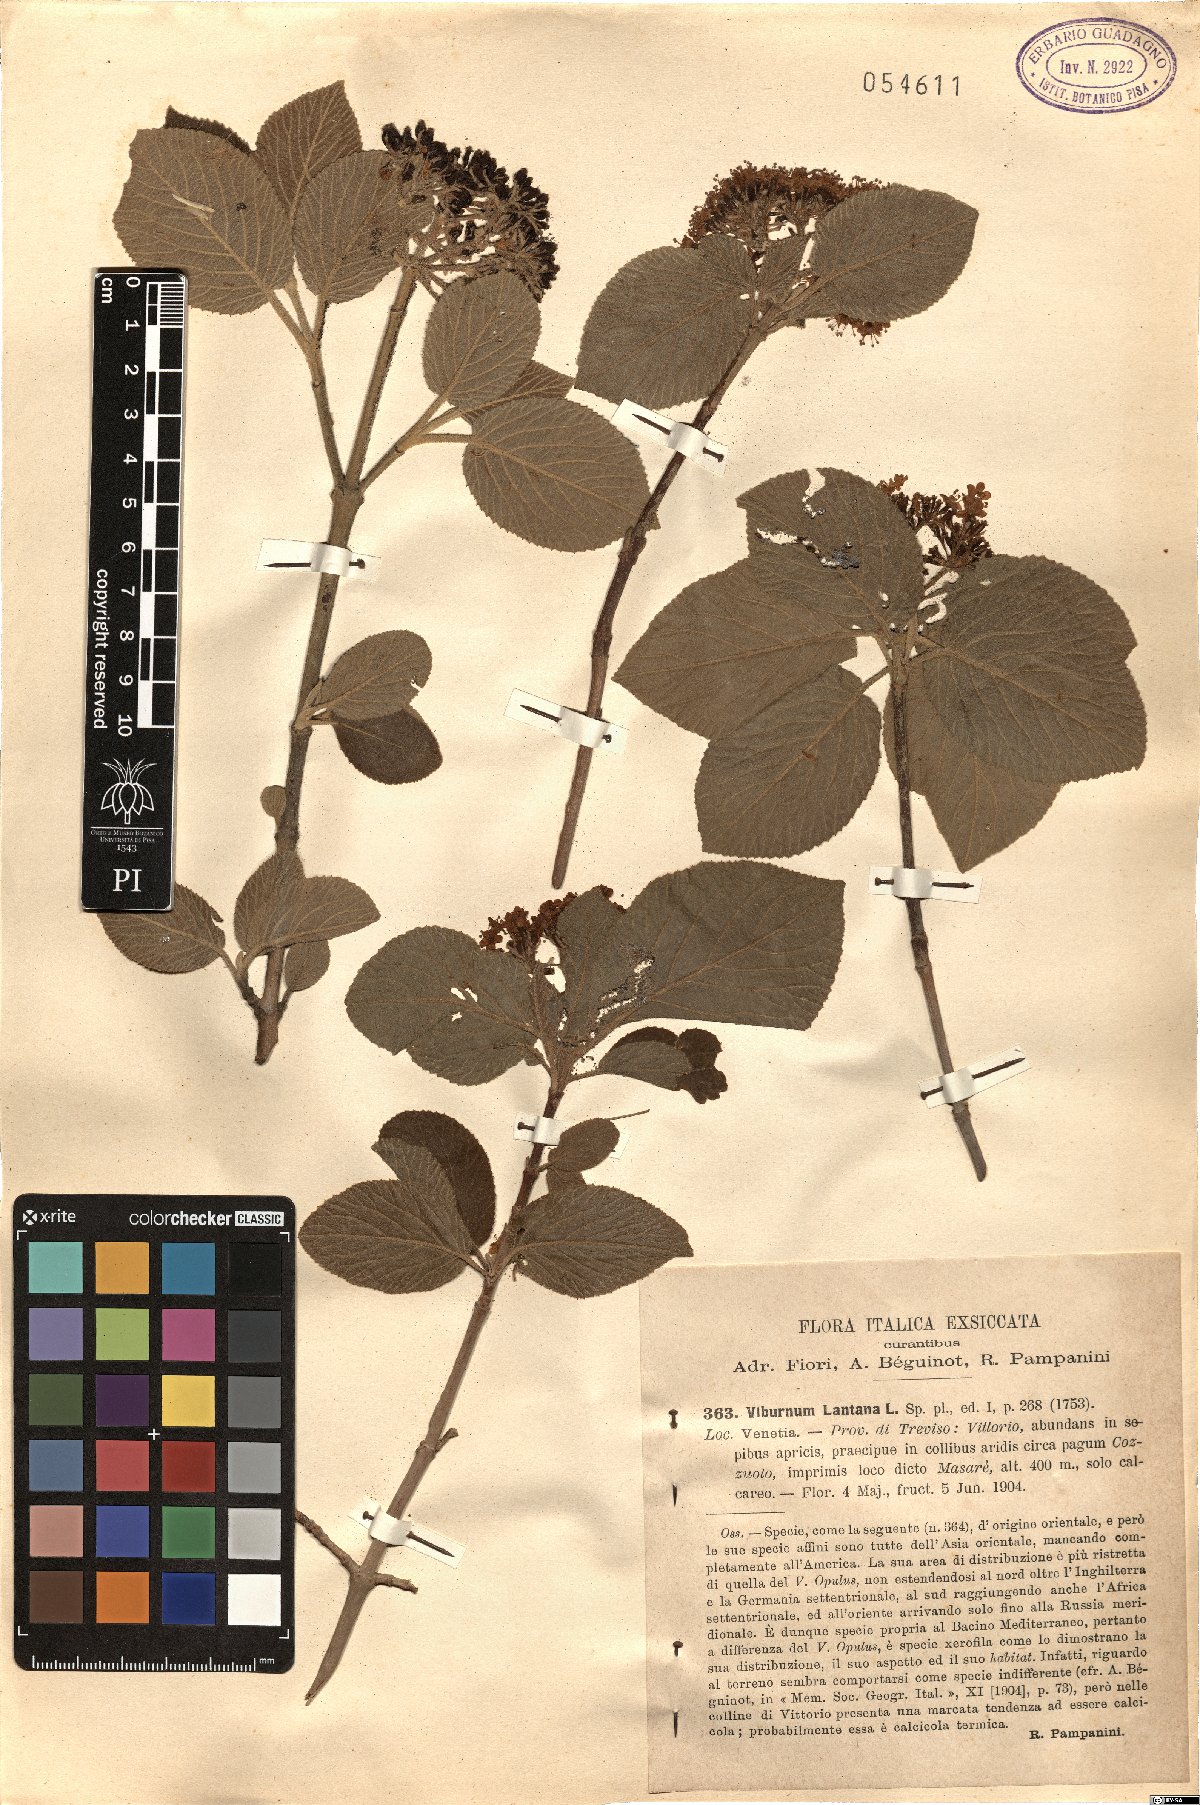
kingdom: Plantae
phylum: Tracheophyta
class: Magnoliopsida
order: Dipsacales
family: Viburnaceae
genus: Viburnum
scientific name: Viburnum lantana
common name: Wayfaring tree
